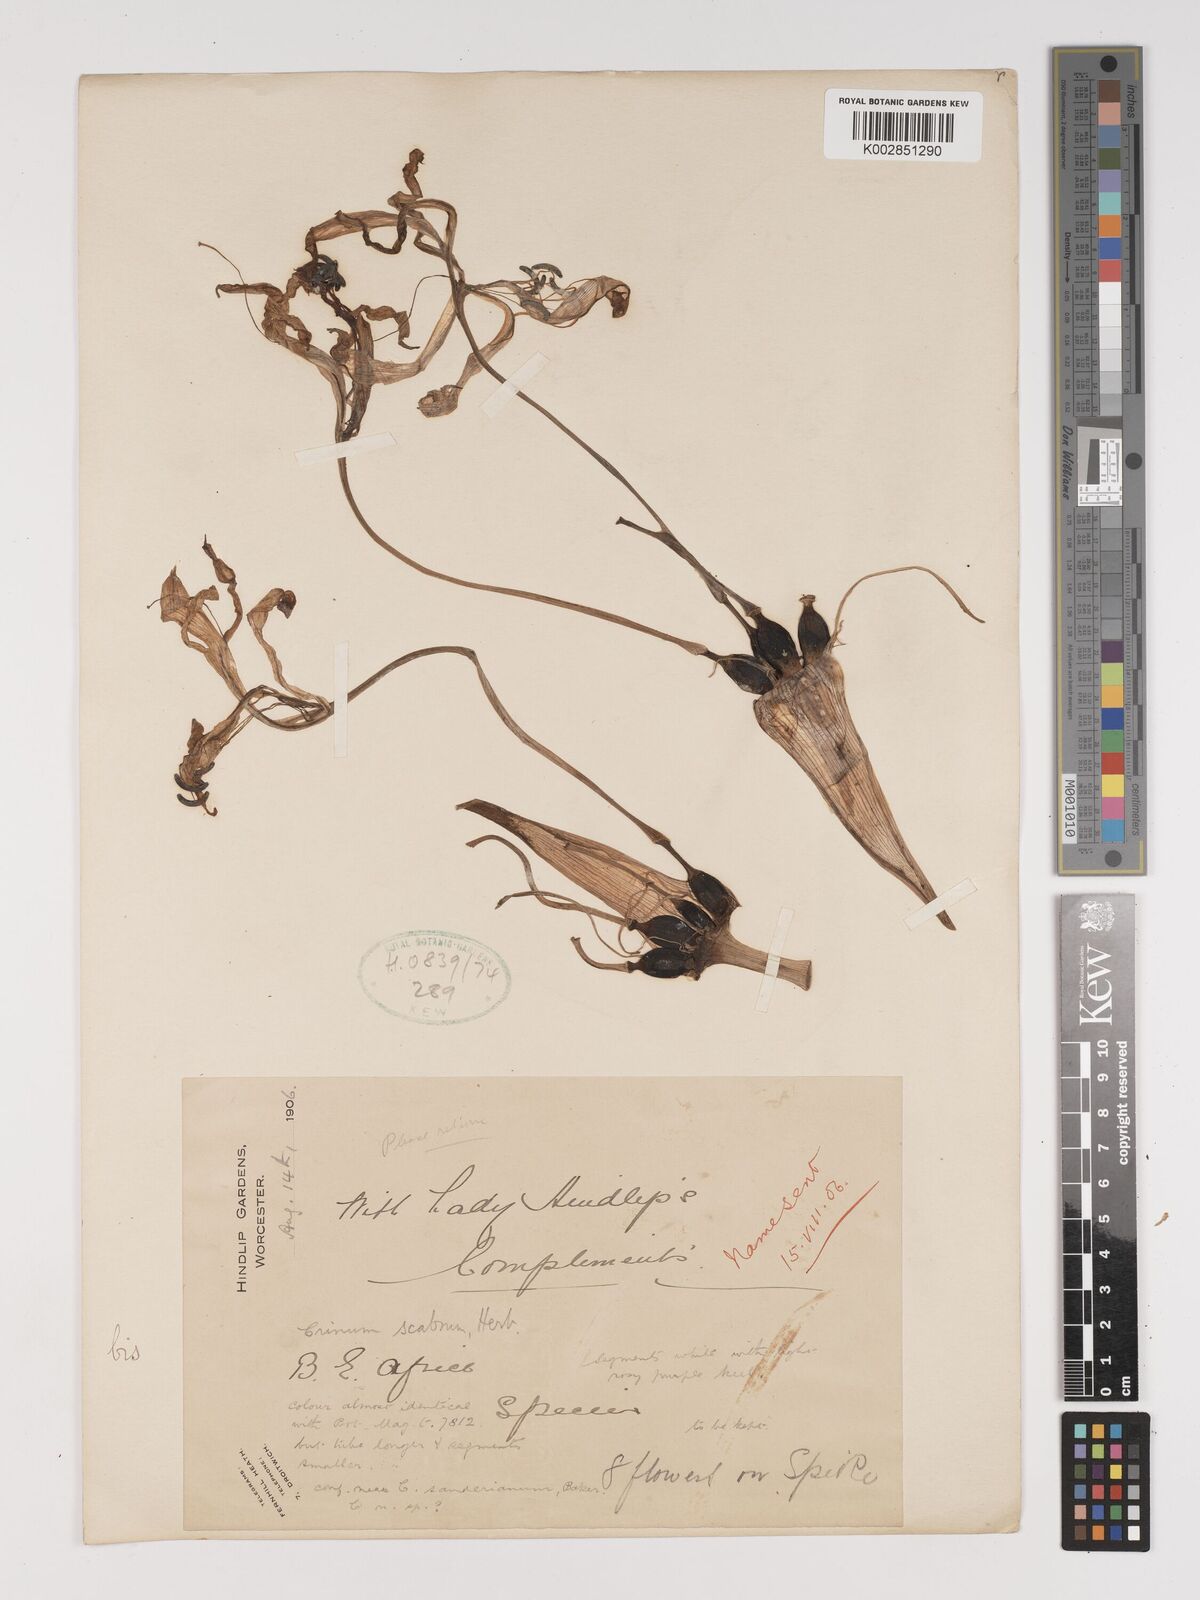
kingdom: Plantae
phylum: Tracheophyta
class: Liliopsida
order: Asparagales
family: Amaryllidaceae
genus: Crinum
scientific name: Crinum macowanii
